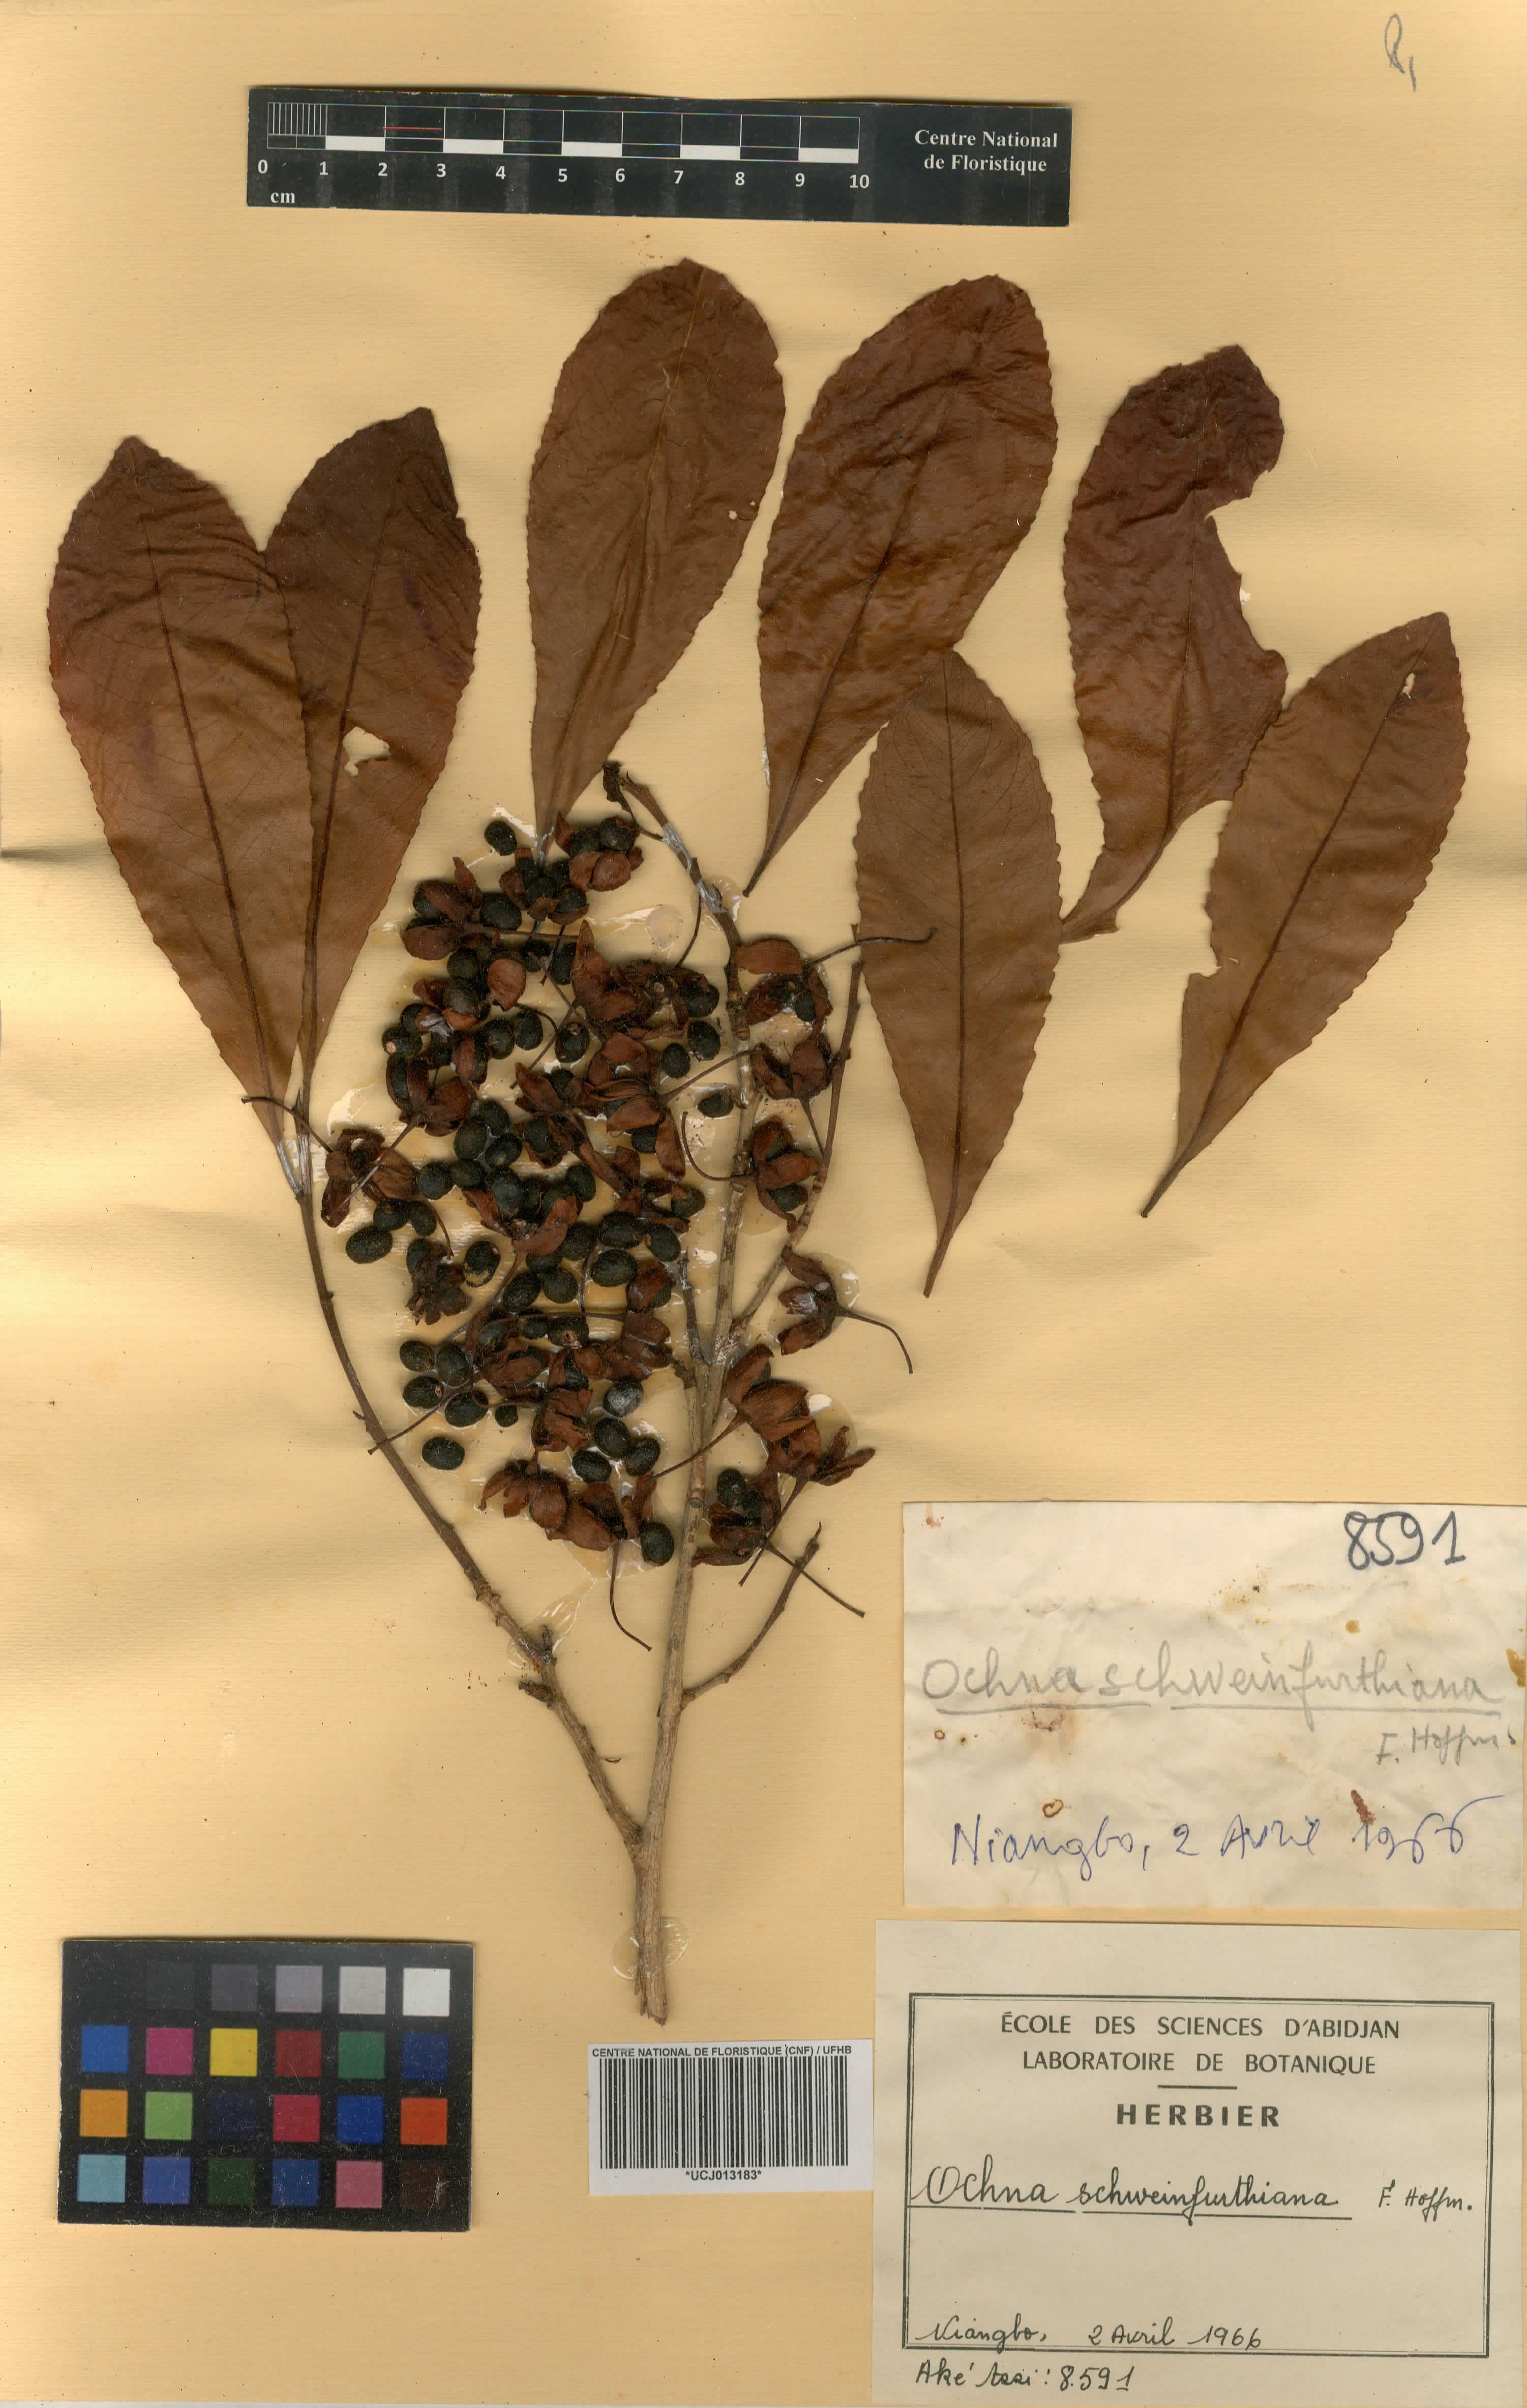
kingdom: Plantae
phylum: Tracheophyta
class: Magnoliopsida
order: Malpighiales
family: Ochnaceae
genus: Ochna
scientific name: Ochna schweinfurthiana
